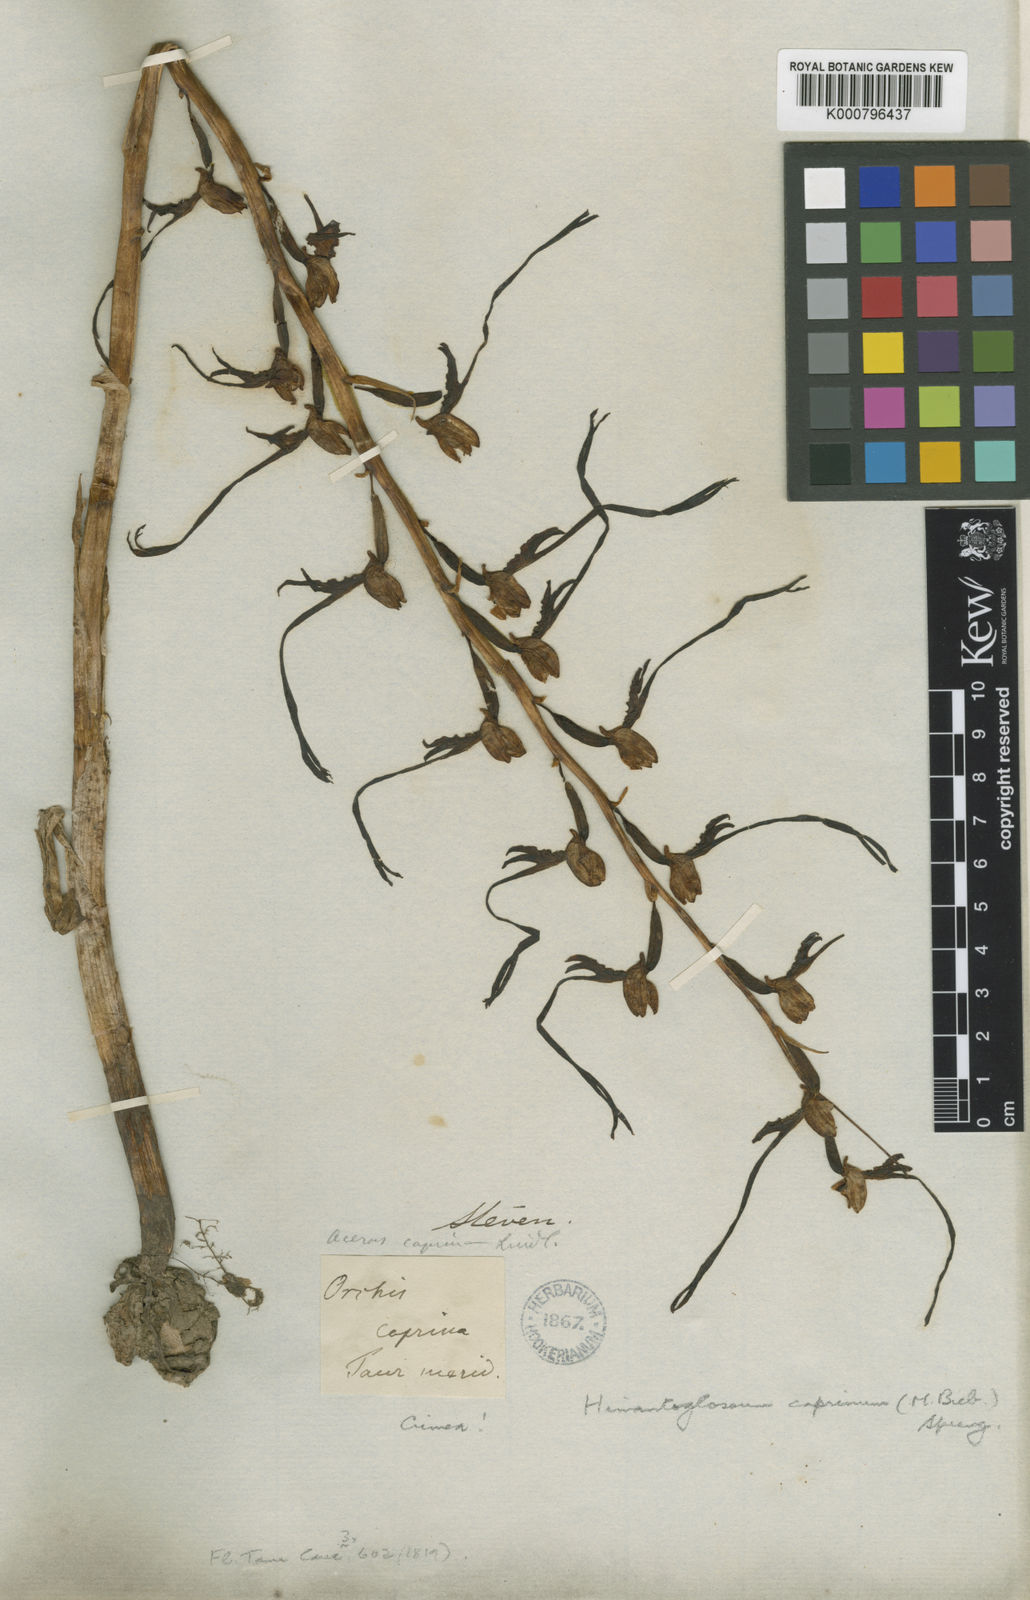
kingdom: Plantae
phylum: Tracheophyta
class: Liliopsida
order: Asparagales
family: Orchidaceae
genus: Himantoglossum
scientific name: Himantoglossum caprinum
